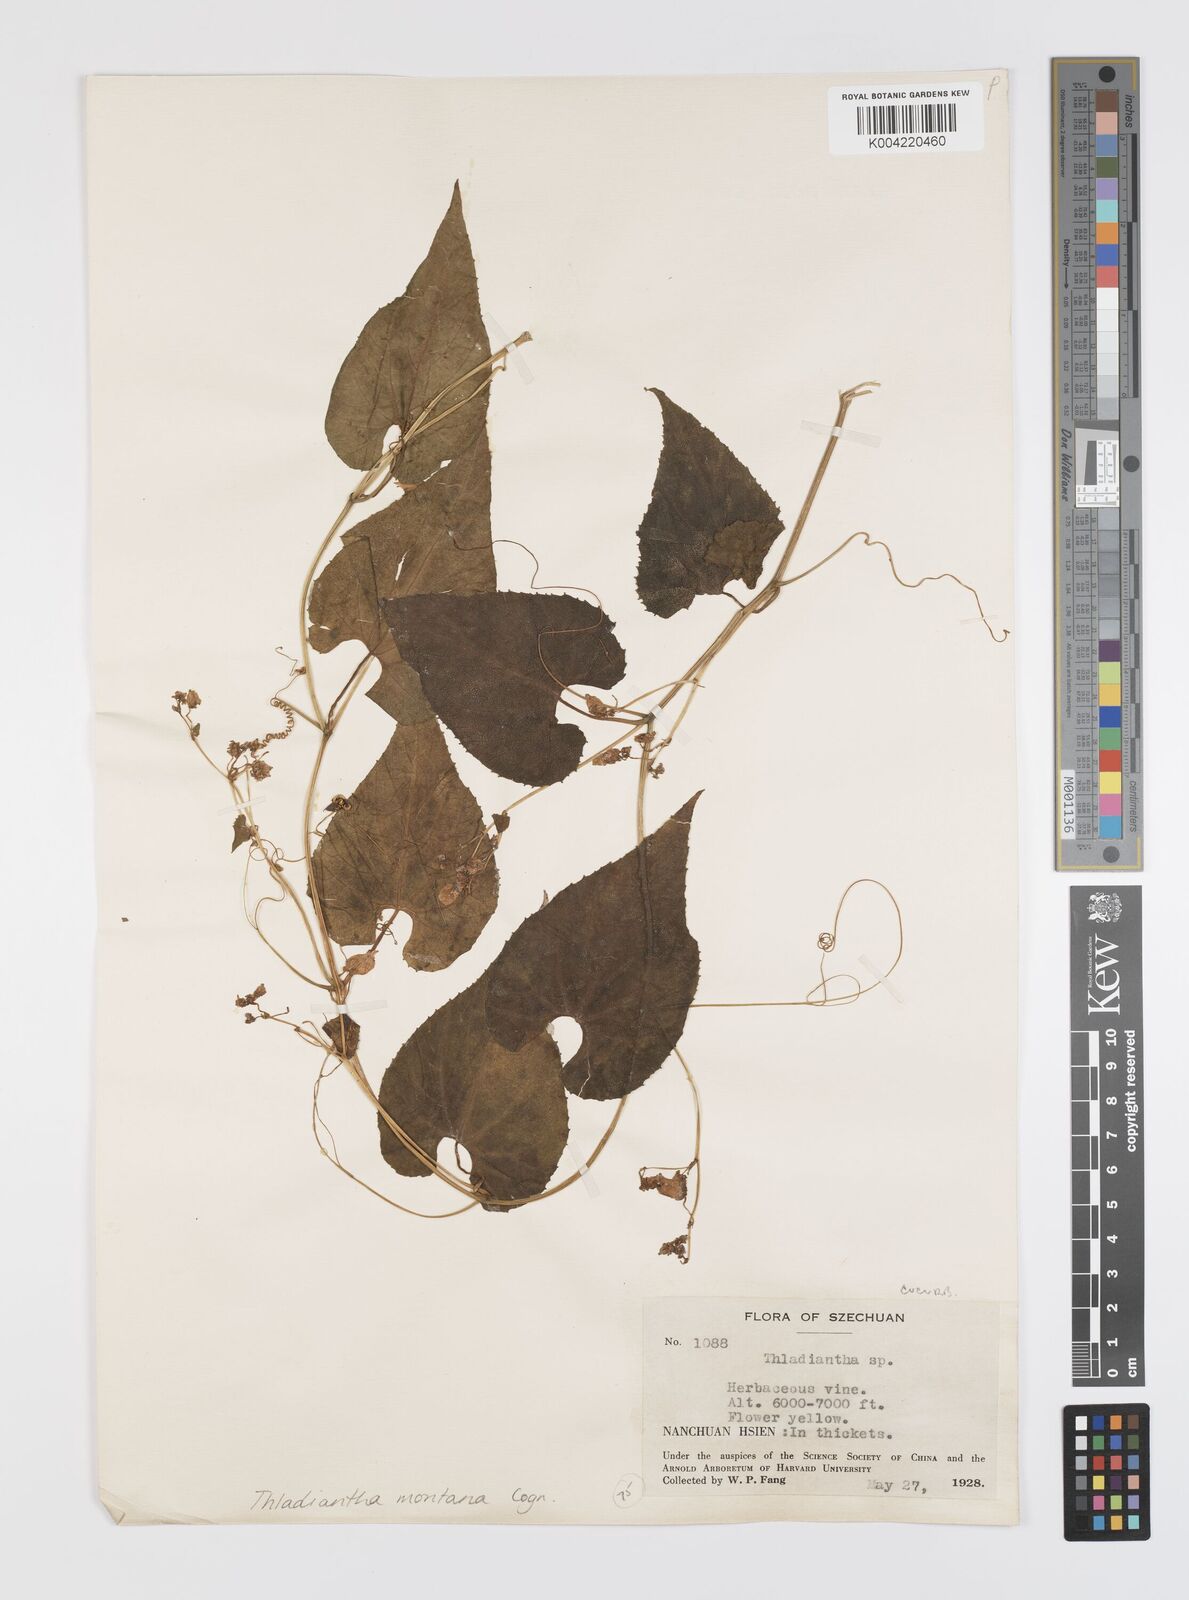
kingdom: Plantae
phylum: Tracheophyta
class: Magnoliopsida
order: Cucurbitales
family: Cucurbitaceae
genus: Thladiantha
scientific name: Thladiantha montana
